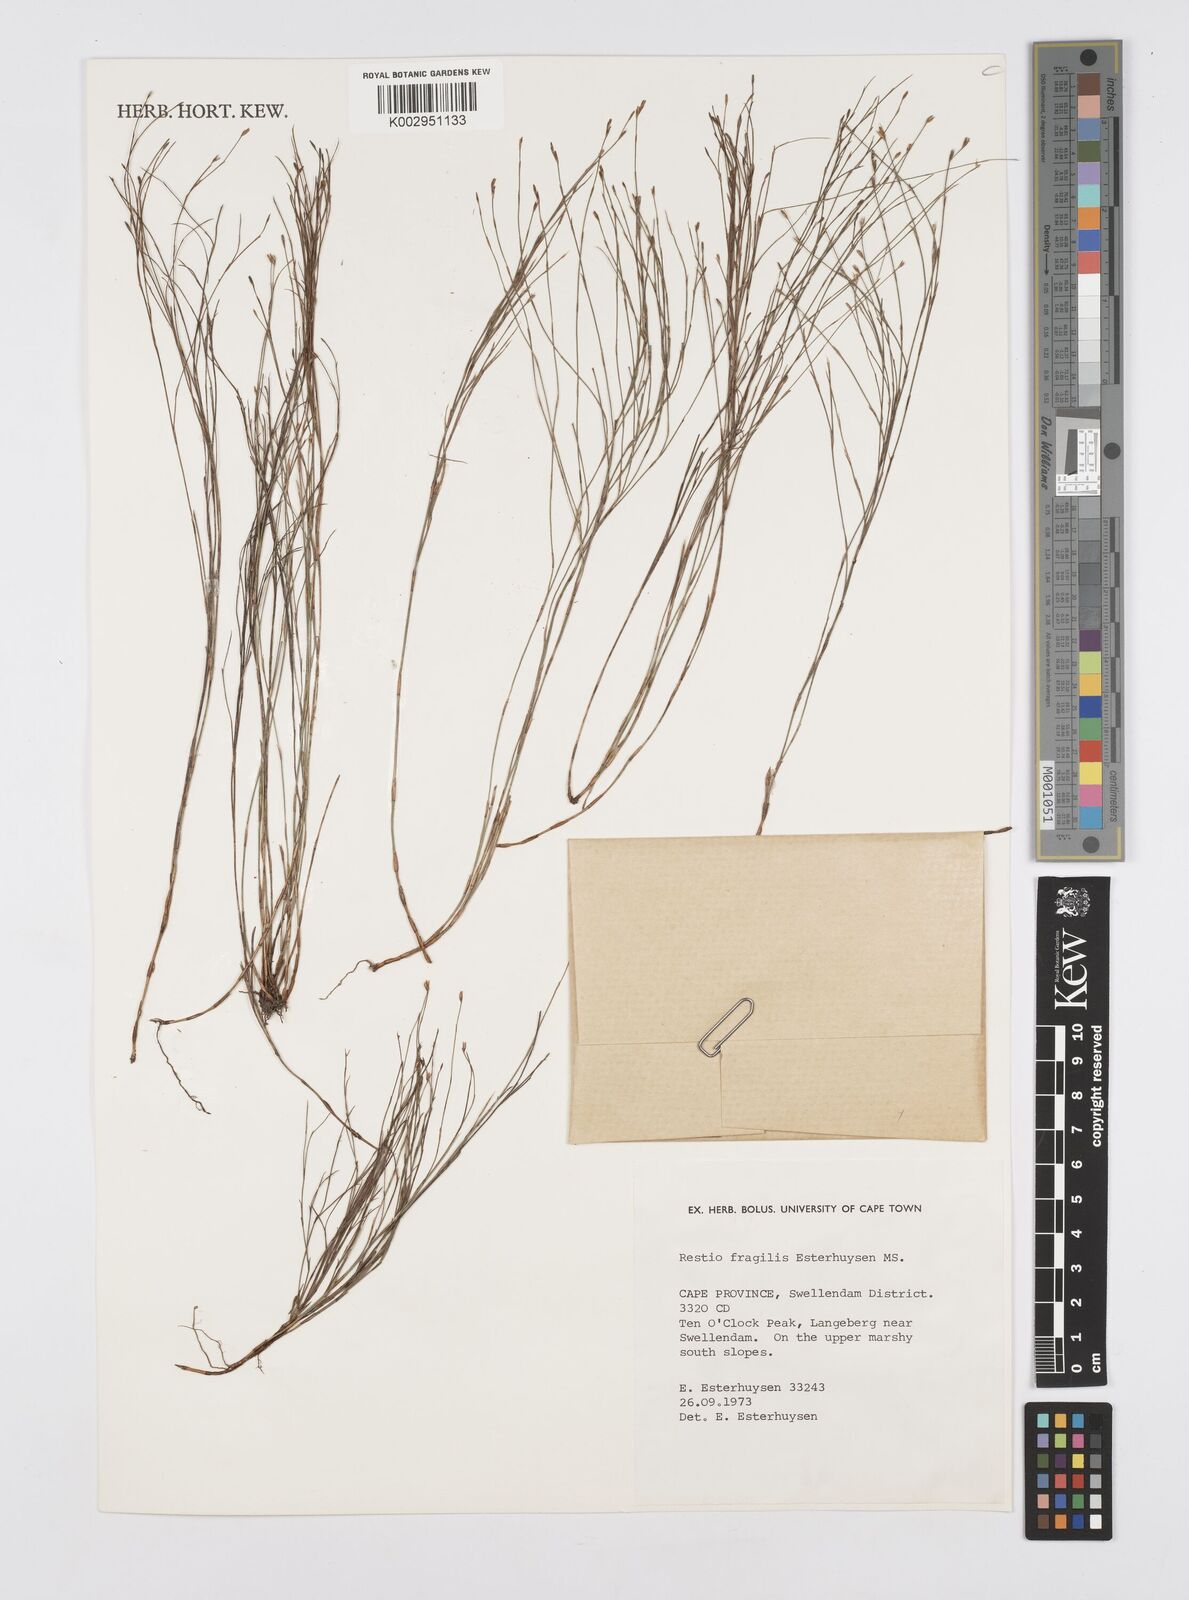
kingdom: Plantae
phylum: Tracheophyta
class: Liliopsida
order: Poales
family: Restionaceae
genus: Restio
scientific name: Restio fragilis
